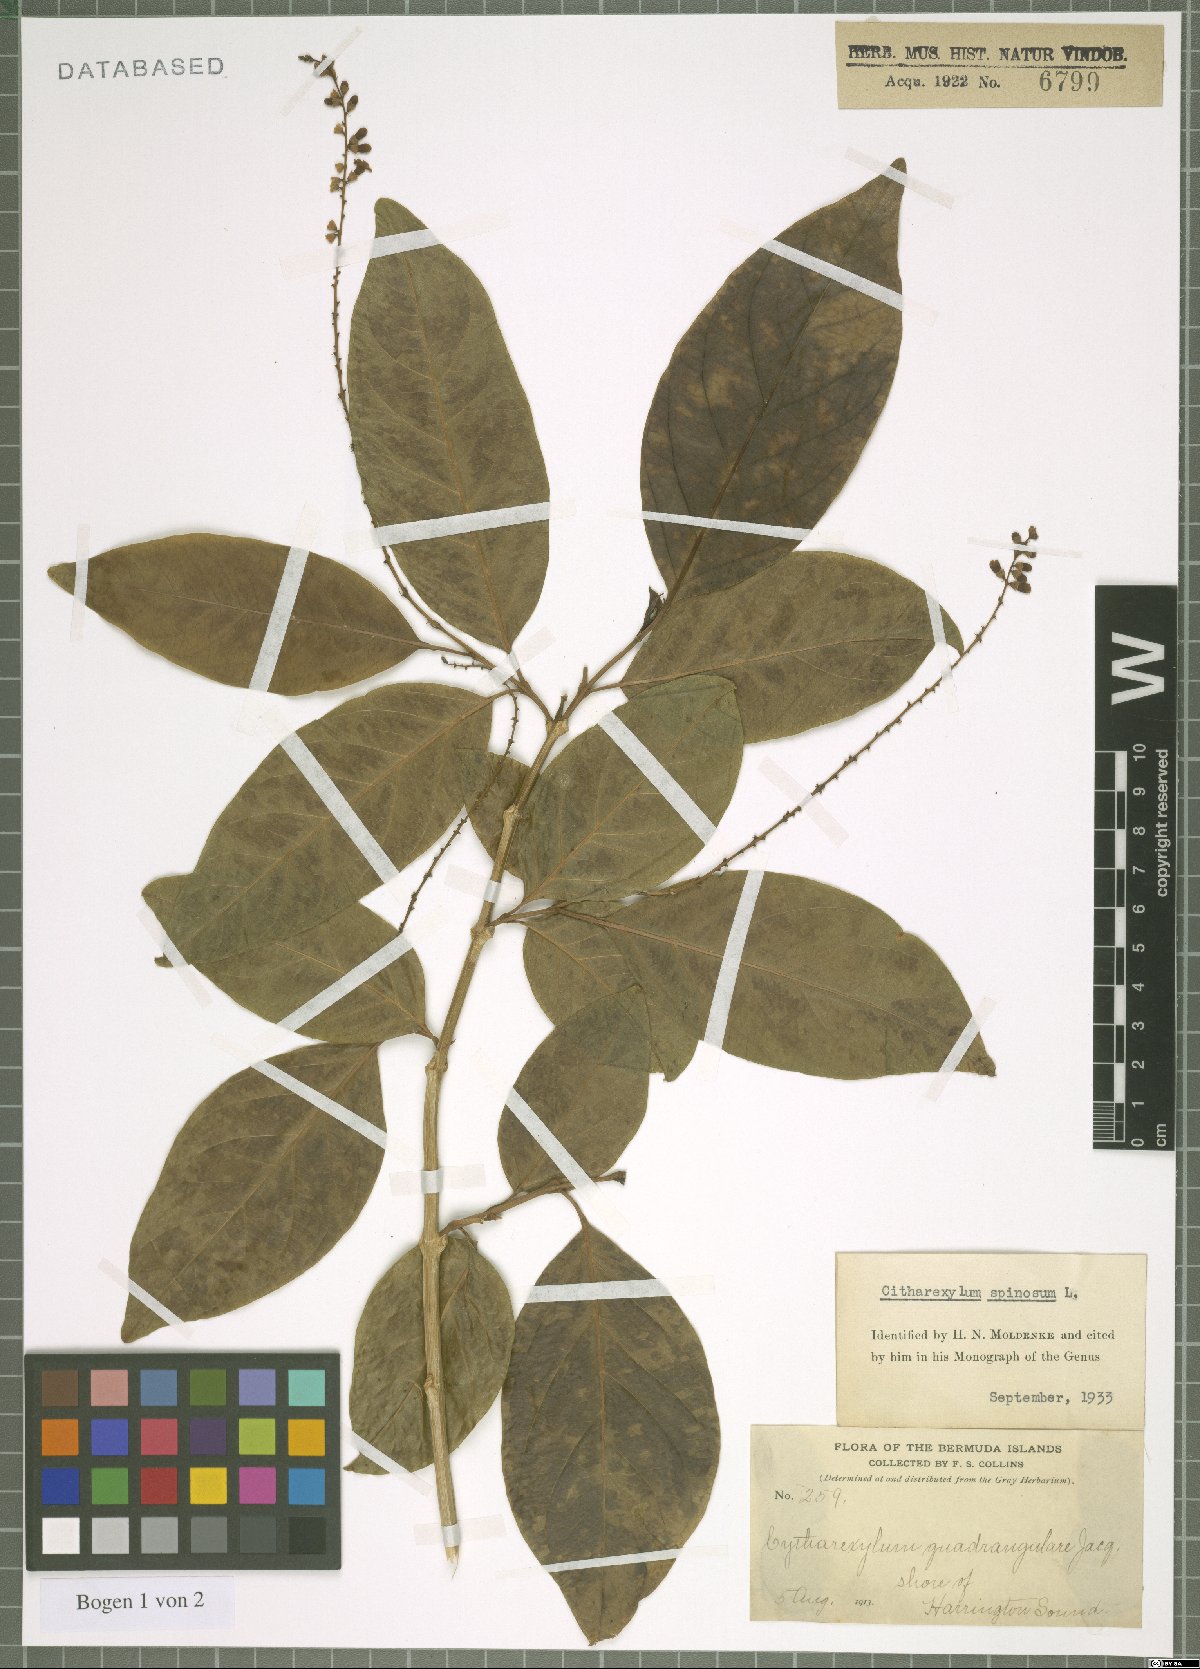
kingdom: Plantae
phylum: Tracheophyta
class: Magnoliopsida
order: Lamiales
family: Verbenaceae
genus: Citharexylum
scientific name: Citharexylum spinosum
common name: Fiddlewood
